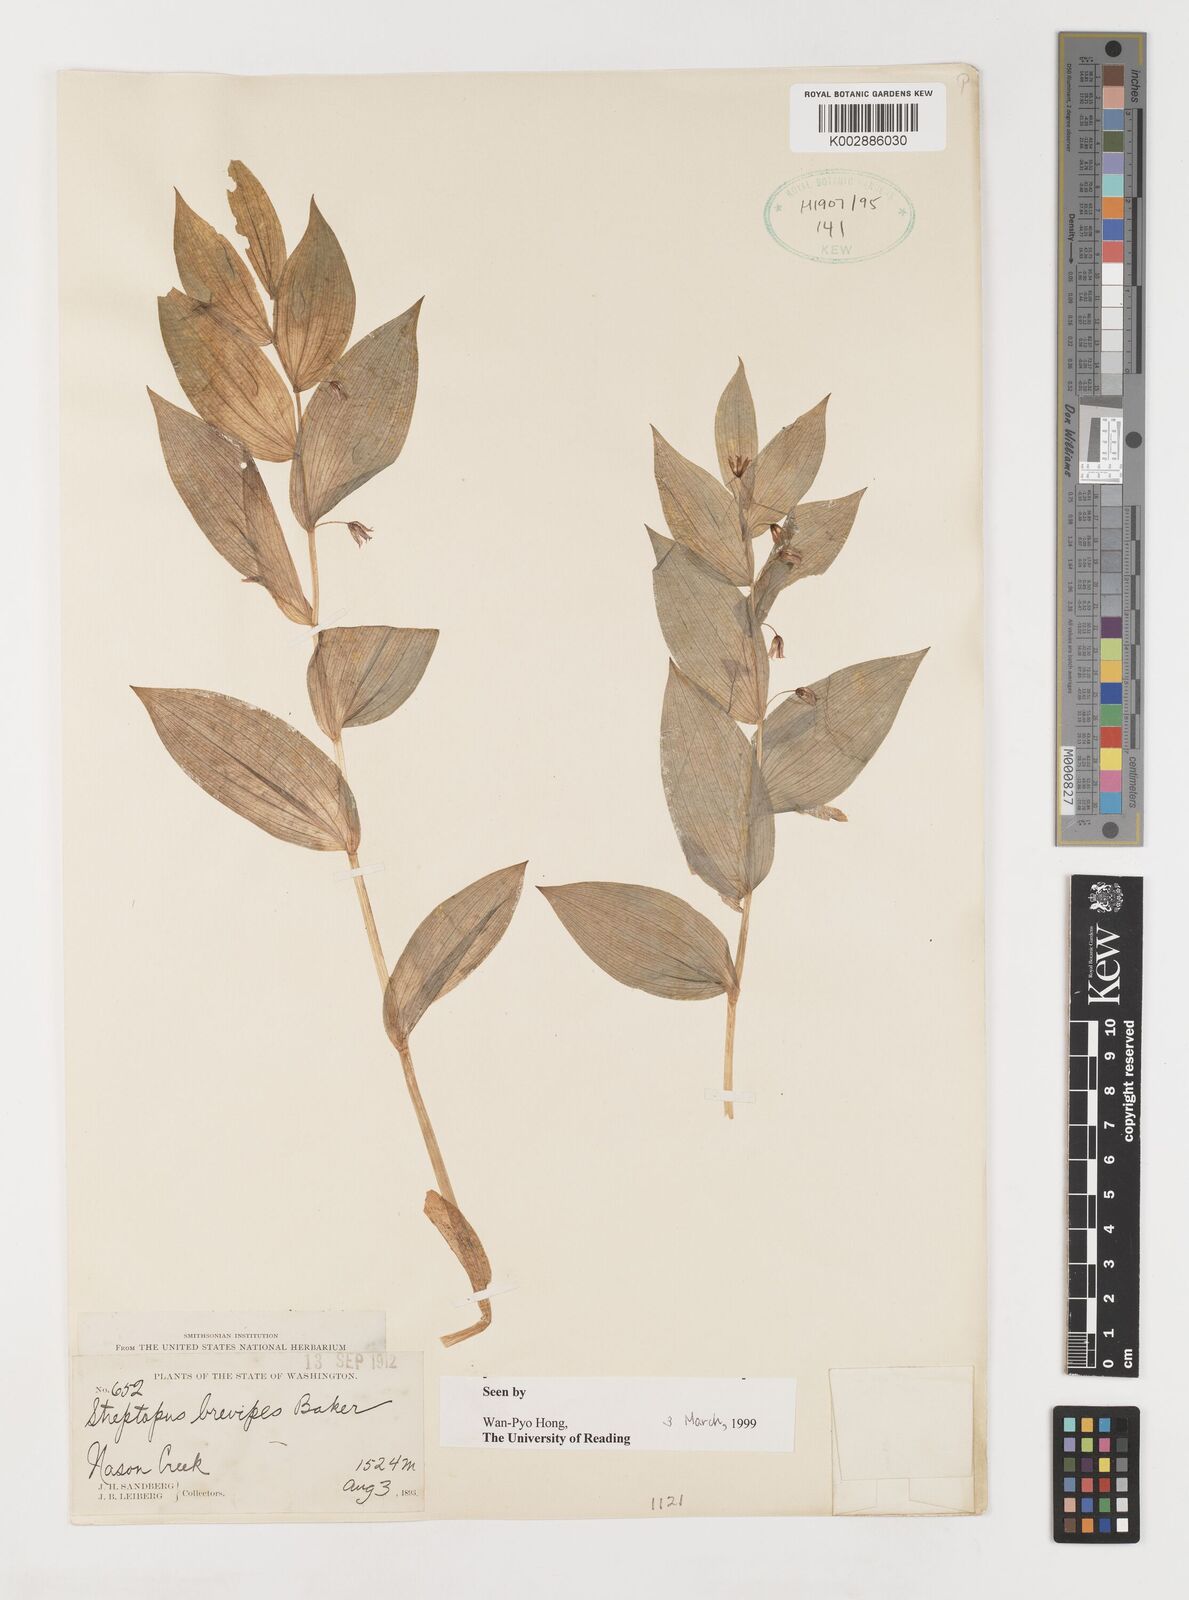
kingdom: Plantae
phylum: Tracheophyta
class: Liliopsida
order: Liliales
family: Liliaceae
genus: Streptopus
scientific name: Streptopus streptopoides
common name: Small twisted-stalk
